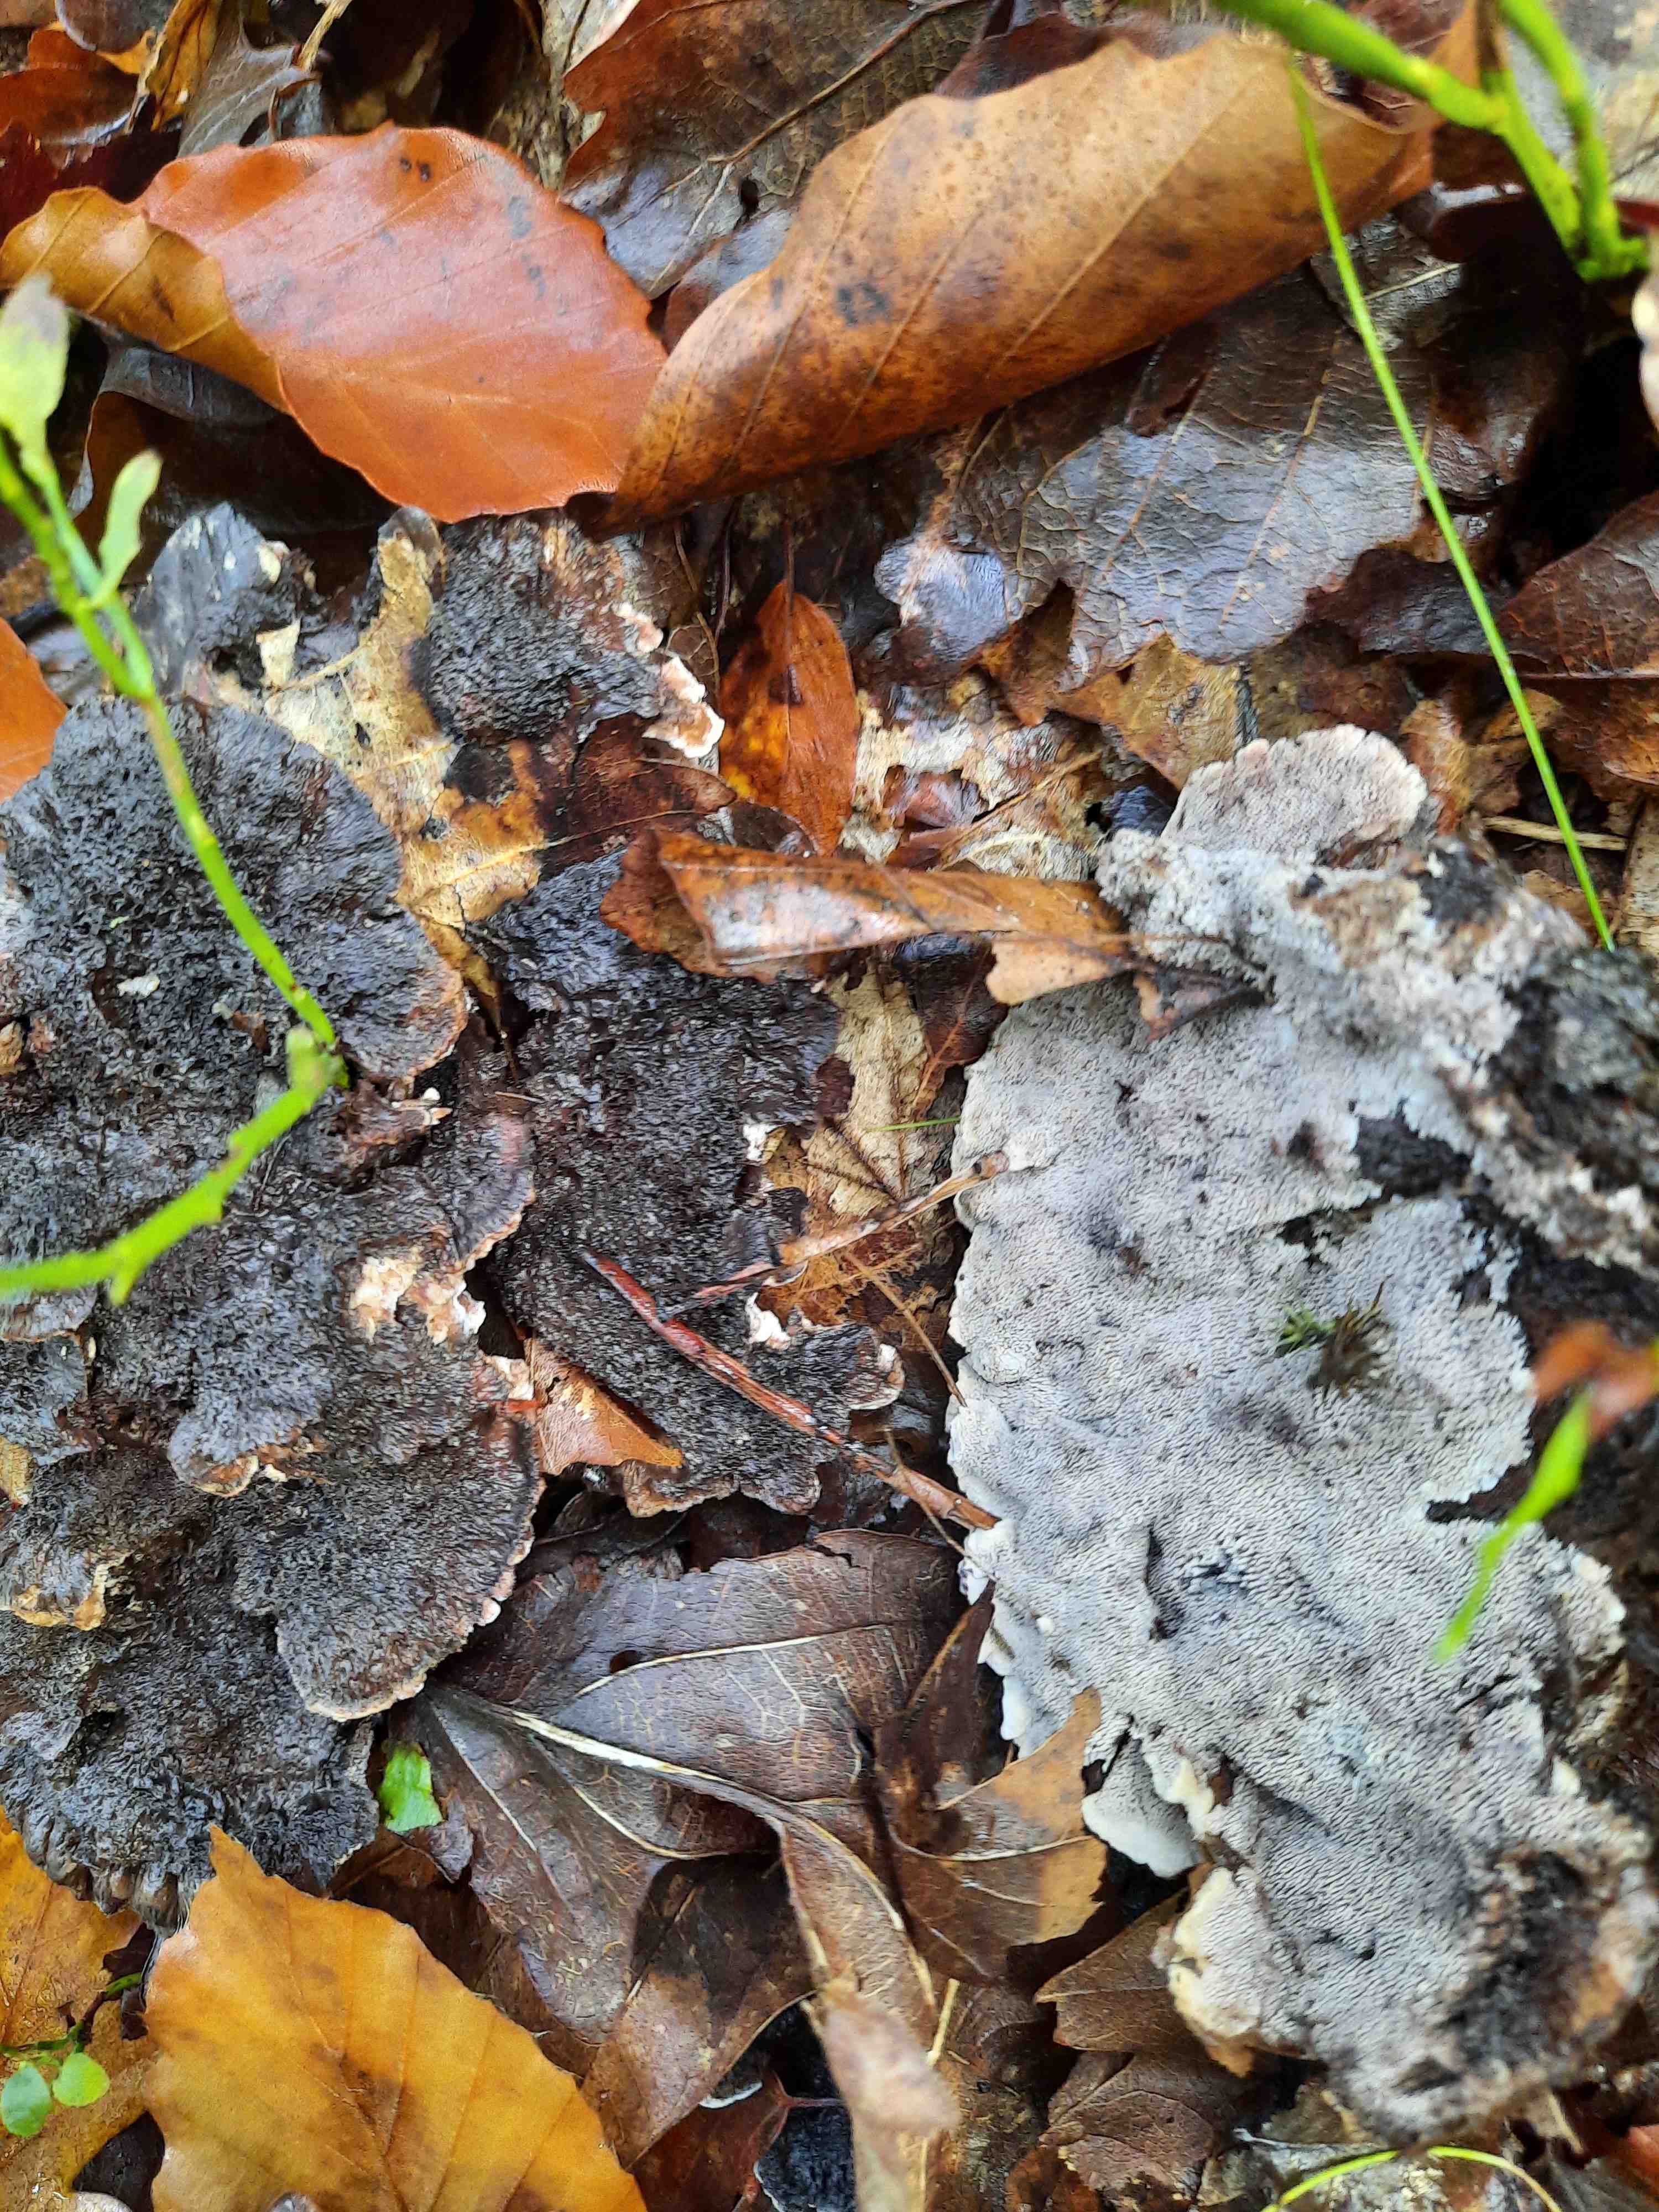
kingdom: Fungi
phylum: Basidiomycota
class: Agaricomycetes
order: Thelephorales
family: Thelephoraceae
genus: Phellodon
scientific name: Phellodon confluens
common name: pjaltet duftpigsvamp
